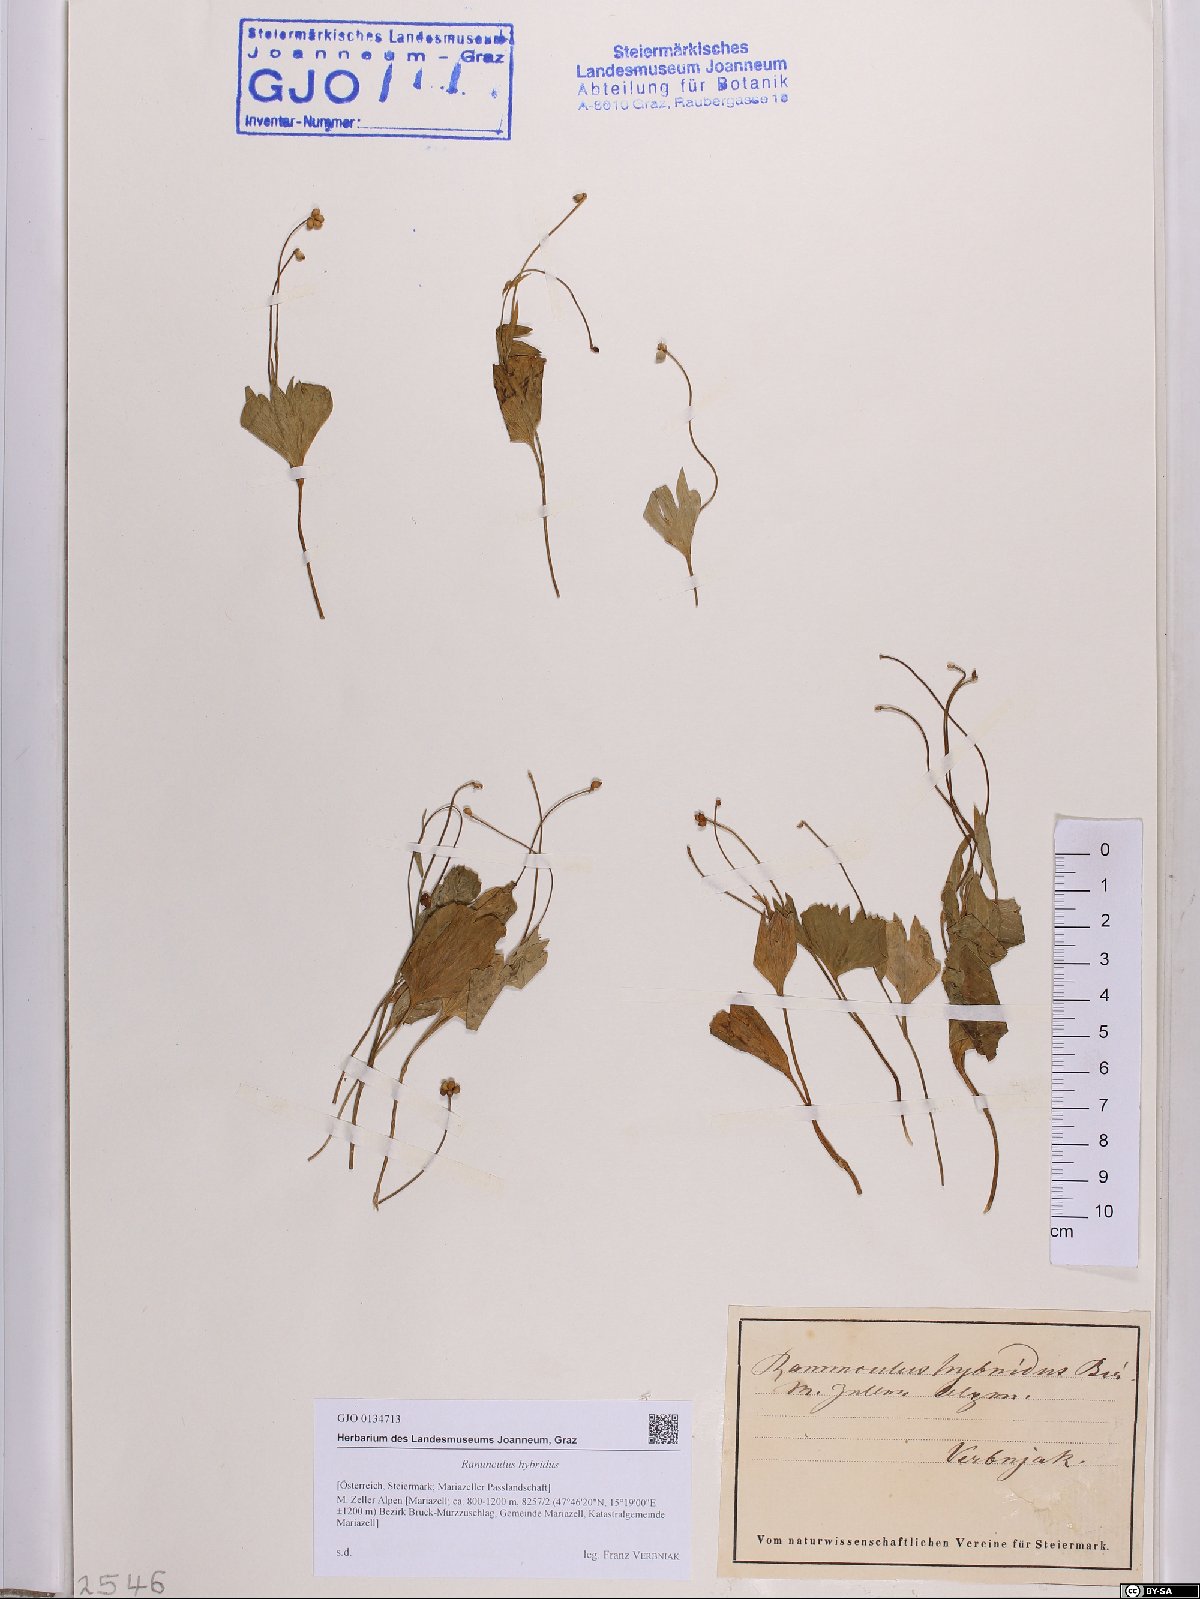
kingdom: Plantae
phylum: Tracheophyta
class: Magnoliopsida
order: Ranunculales
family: Ranunculaceae
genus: Ranunculus
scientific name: Ranunculus hybridus
